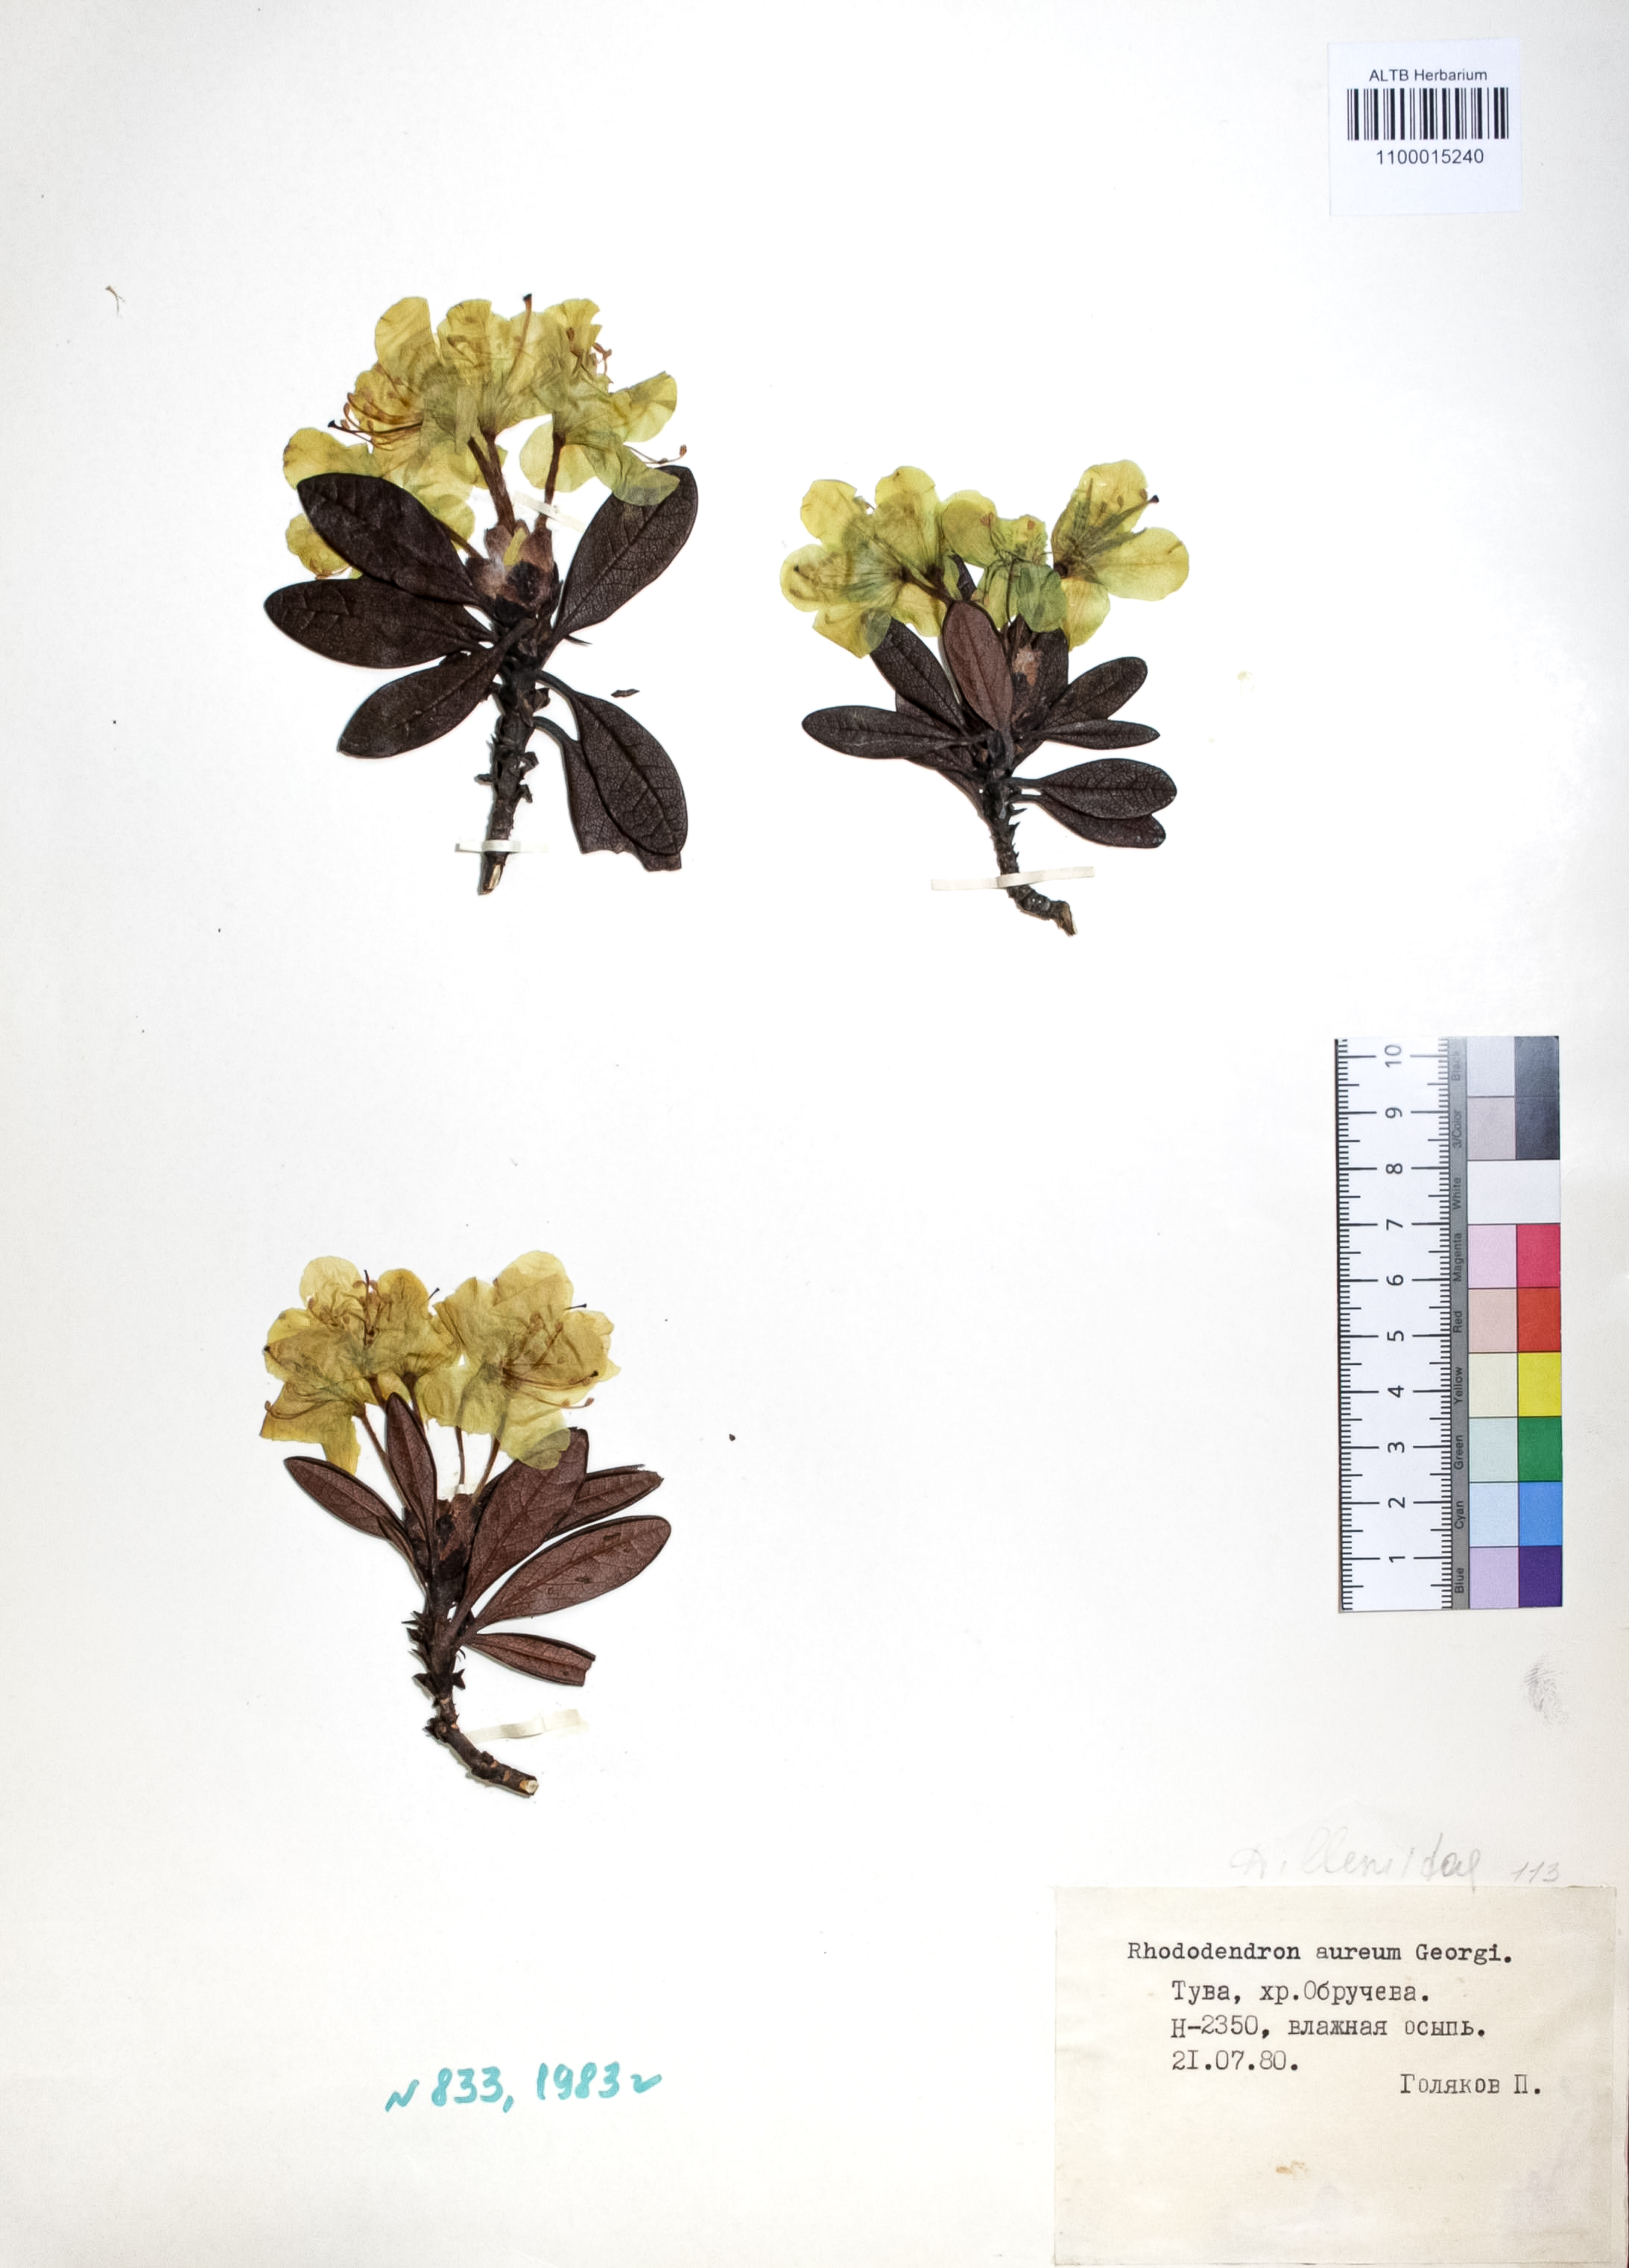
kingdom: Plantae
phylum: Tracheophyta
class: Magnoliopsida
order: Ericales
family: Ericaceae
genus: Rhododendron
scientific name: Rhododendron aureum
